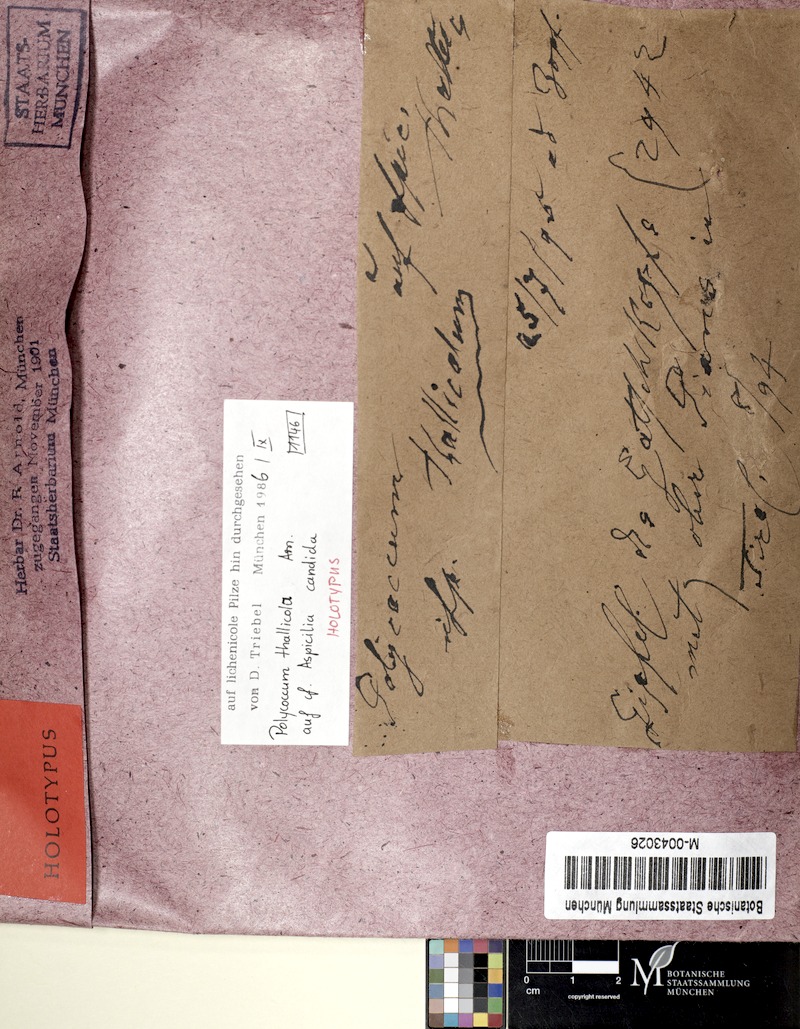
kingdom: Fungi
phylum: Ascomycota
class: Lecanoromycetes
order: Pertusariales
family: Megasporaceae
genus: Aspicilia
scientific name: Aspicilia candida
